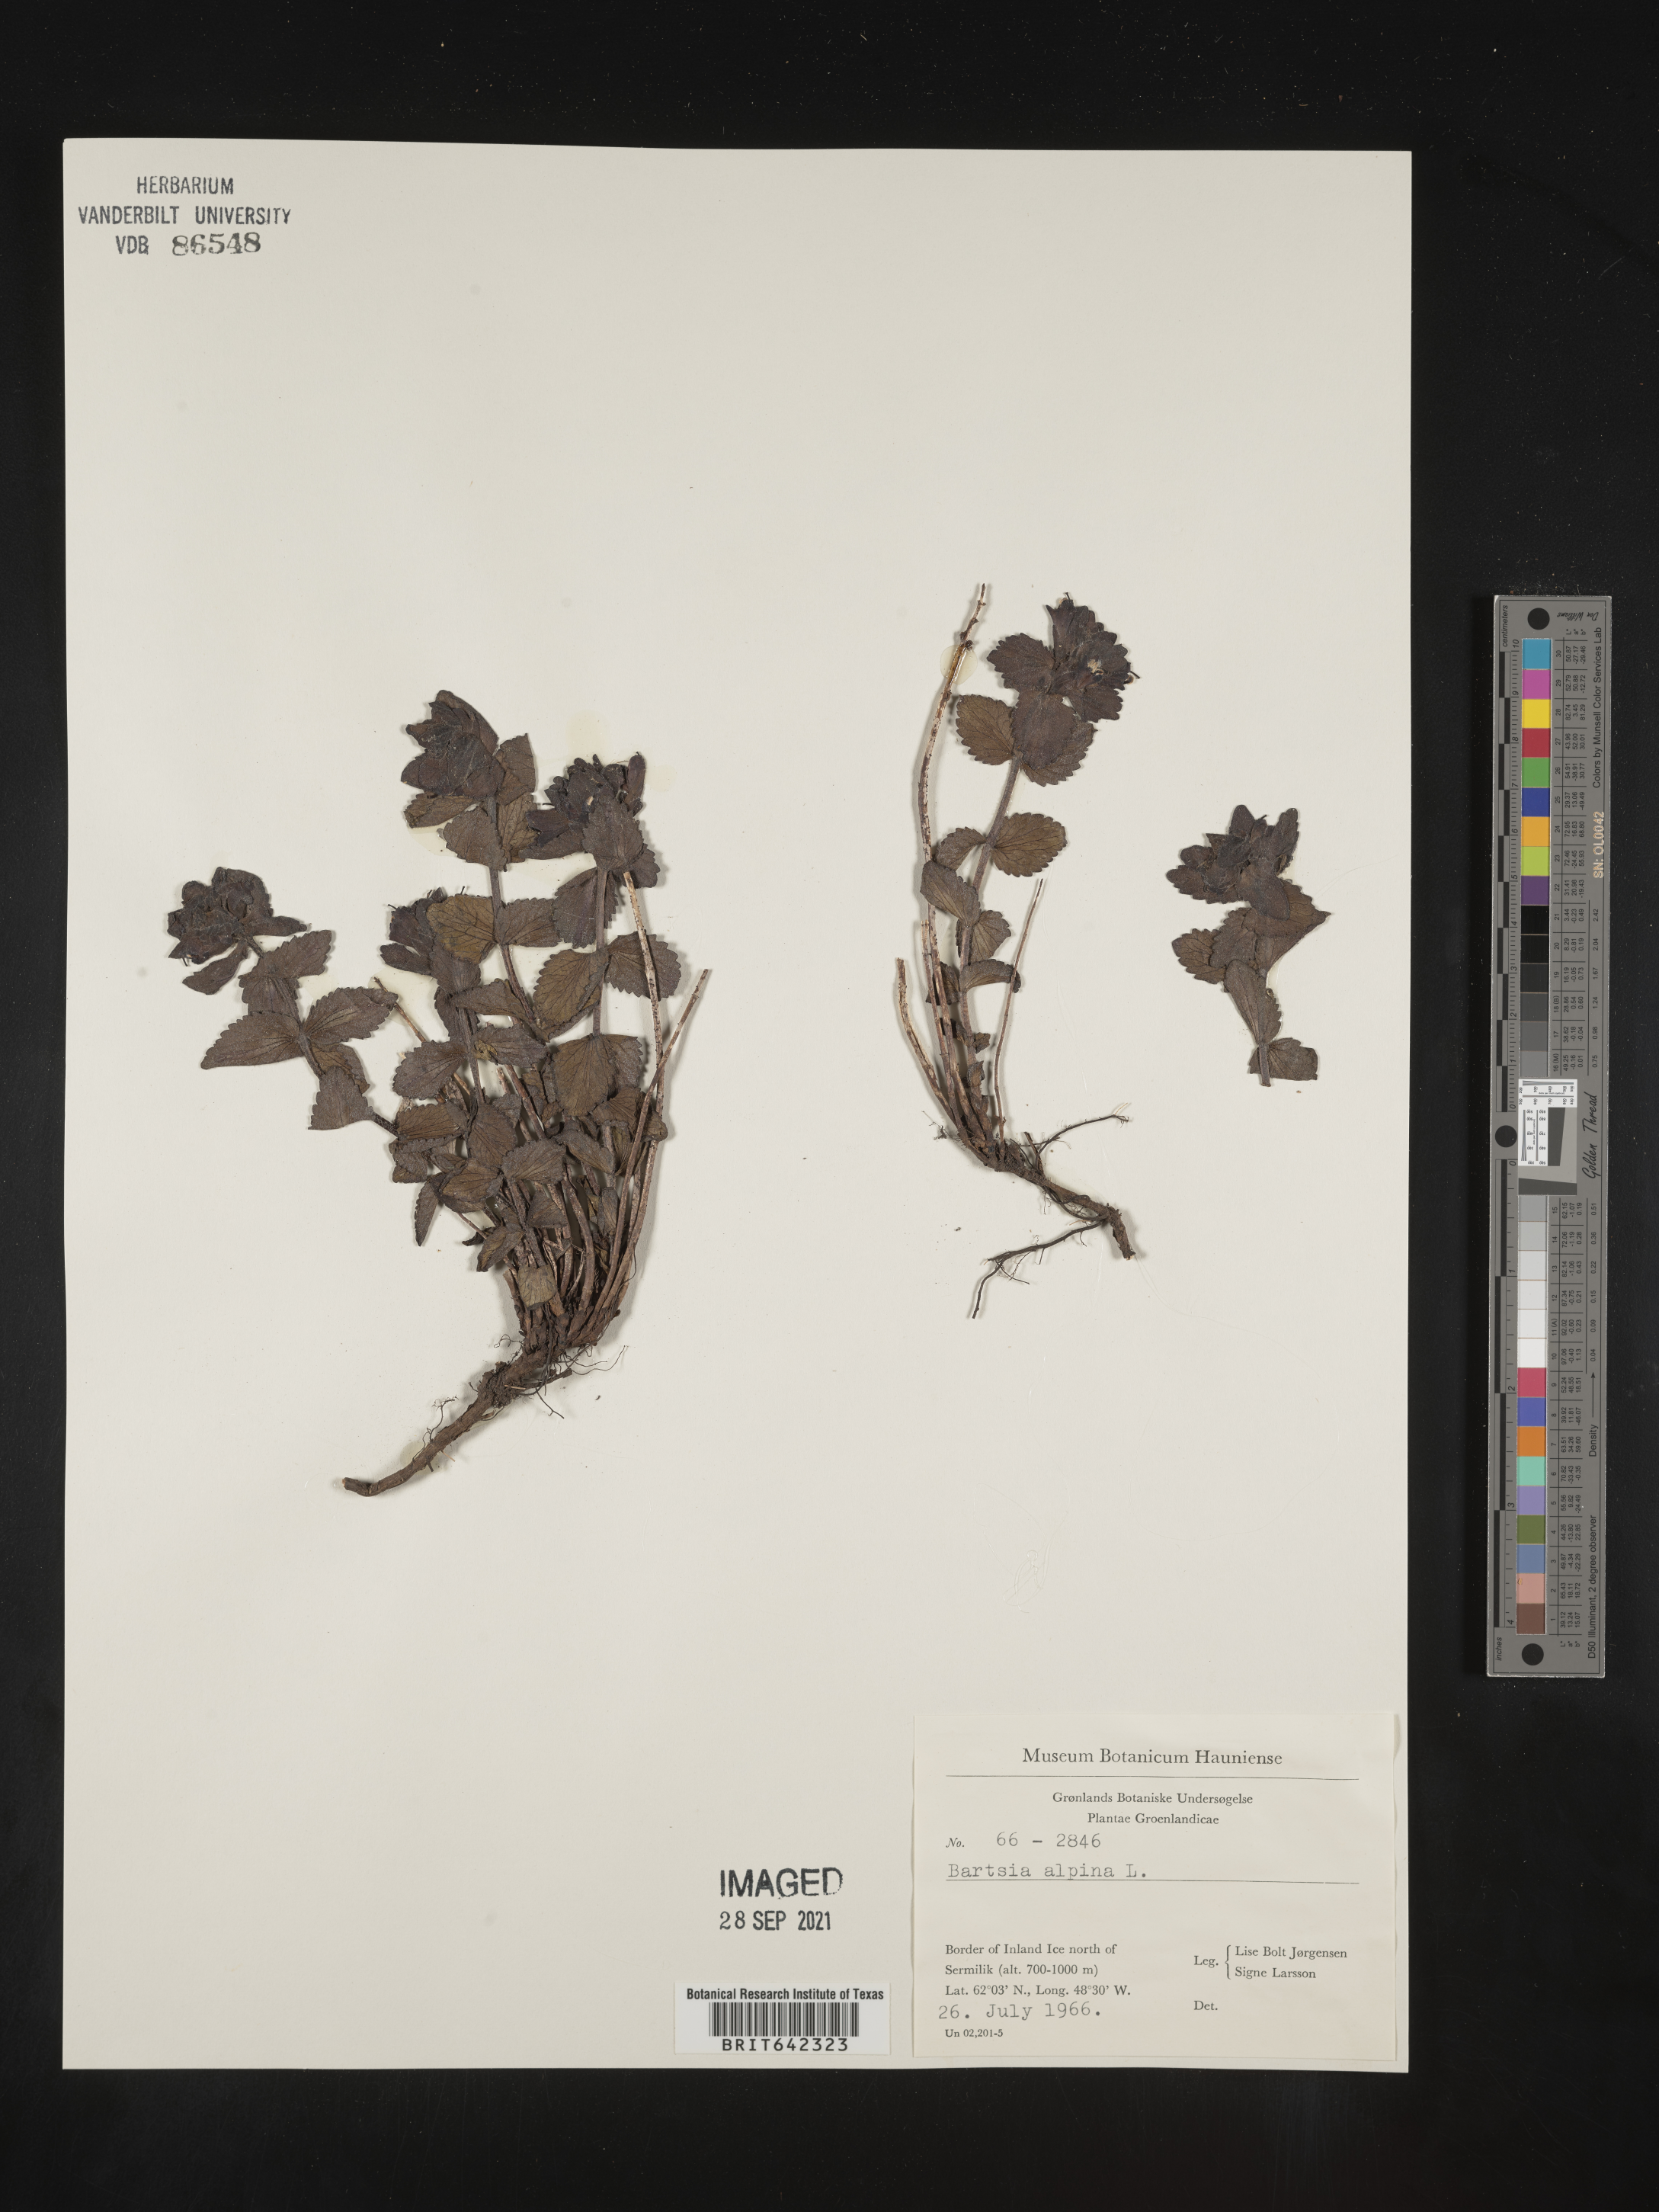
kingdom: Plantae
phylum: Tracheophyta
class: Magnoliopsida
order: Lamiales
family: Orobanchaceae
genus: Bartsia
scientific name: Bartsia
